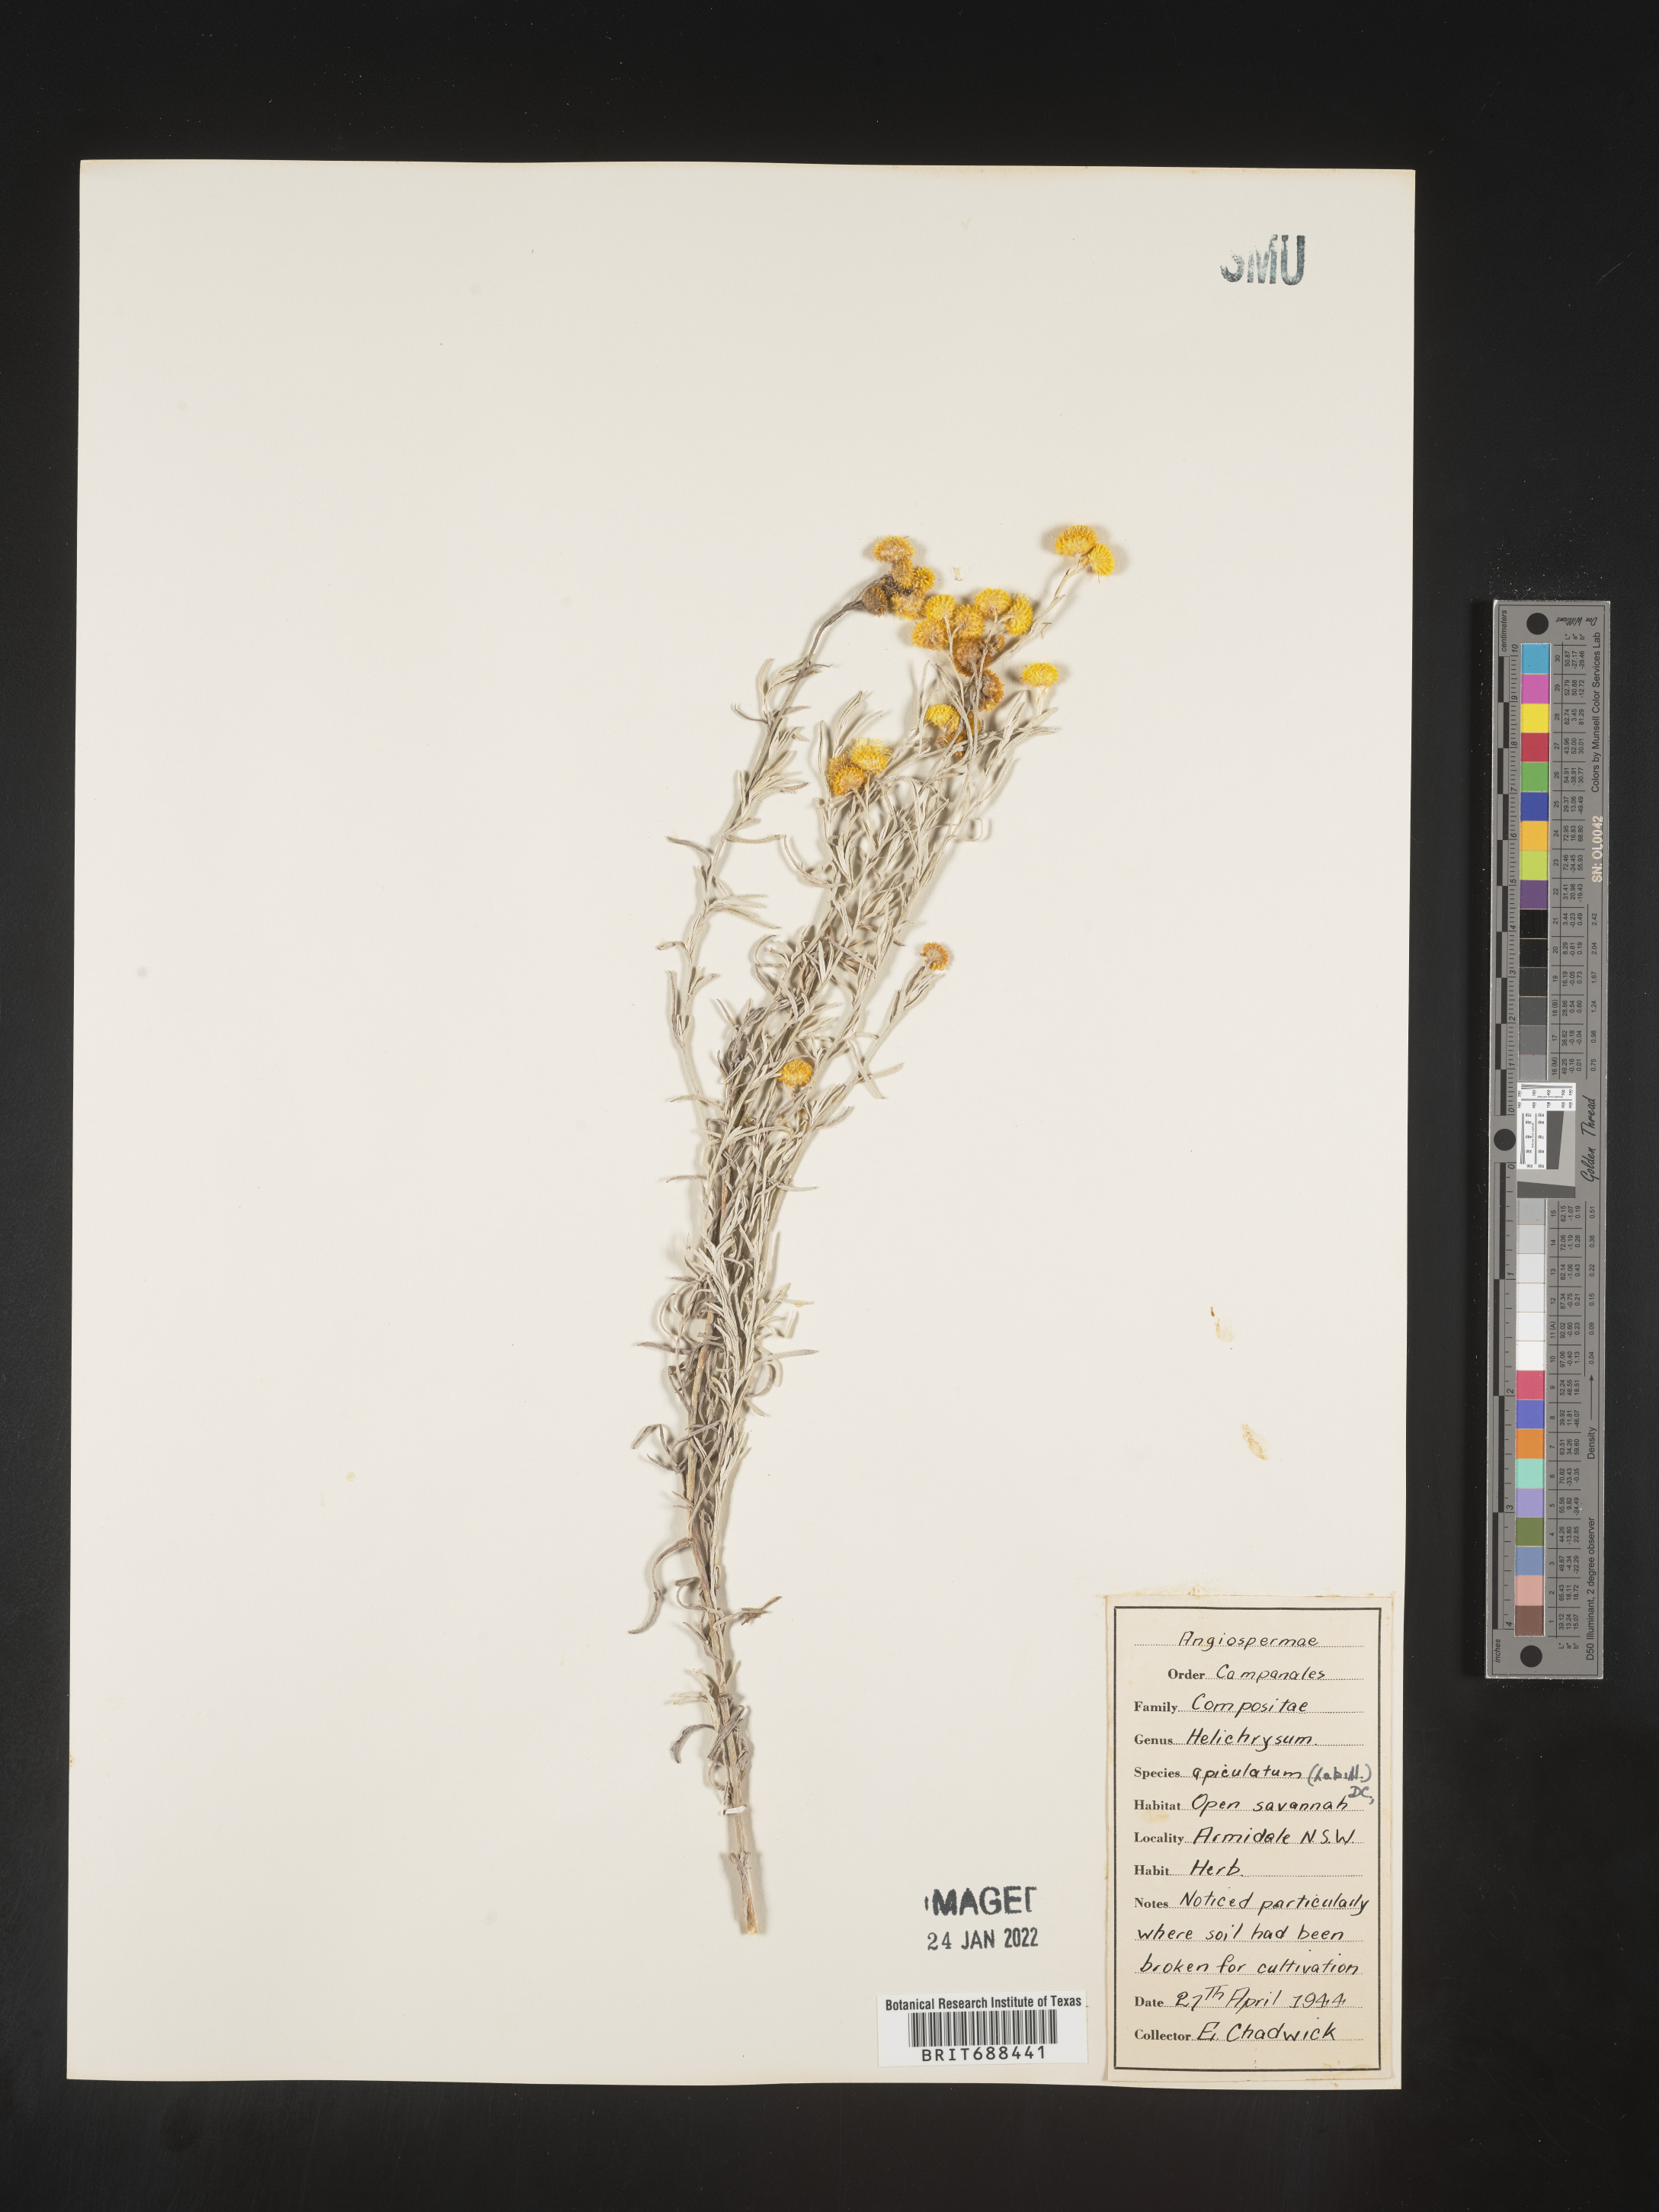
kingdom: Plantae
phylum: Tracheophyta
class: Magnoliopsida
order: Asterales
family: Asteraceae
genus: Chrysocephalum
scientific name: Chrysocephalum
